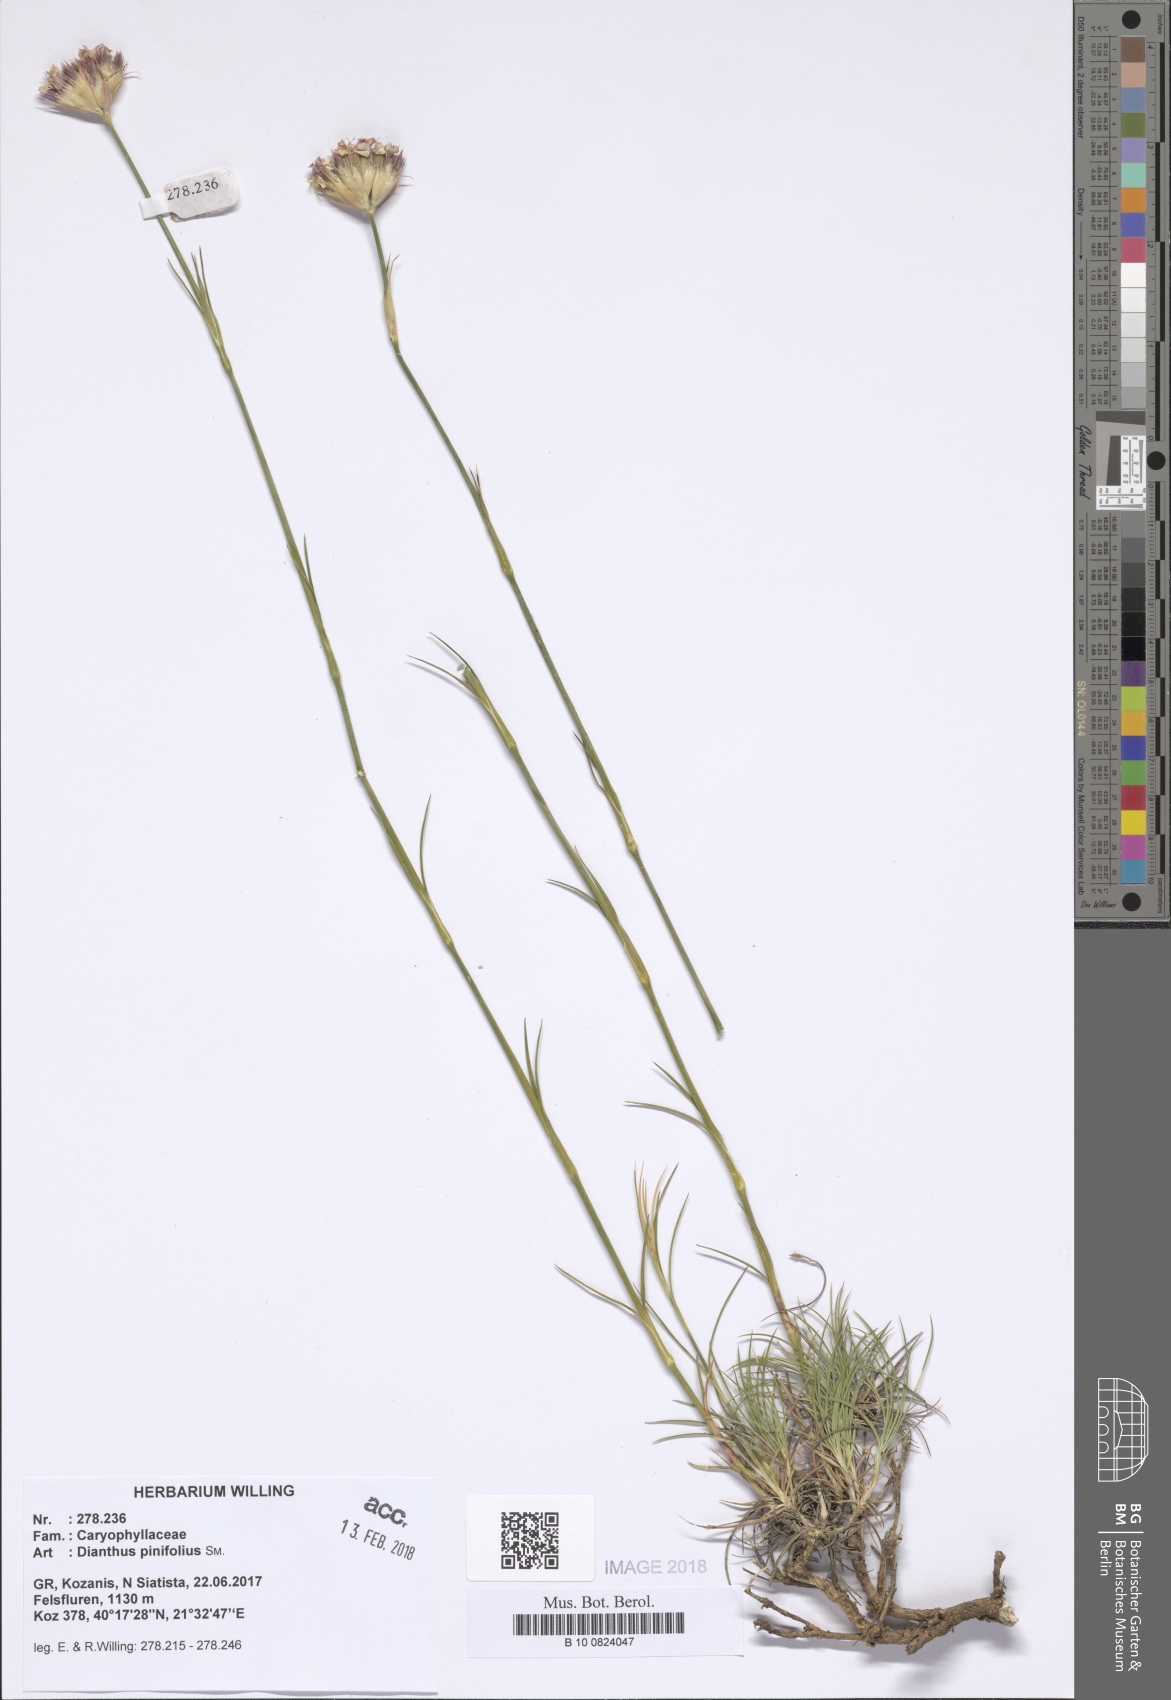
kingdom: Plantae
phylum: Tracheophyta
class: Magnoliopsida
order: Caryophyllales
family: Caryophyllaceae
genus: Dianthus
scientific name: Dianthus pinifolius
